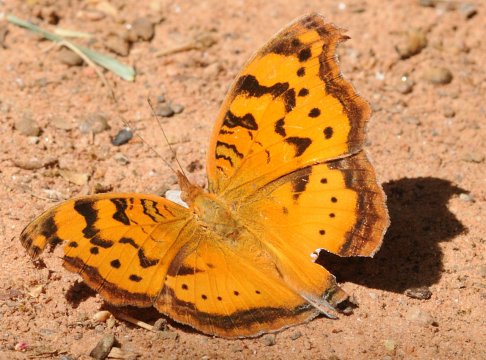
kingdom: Animalia
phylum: Arthropoda
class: Insecta
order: Lepidoptera
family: Nymphalidae
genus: Junonia
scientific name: Junonia antilope
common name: Darker Commodore
